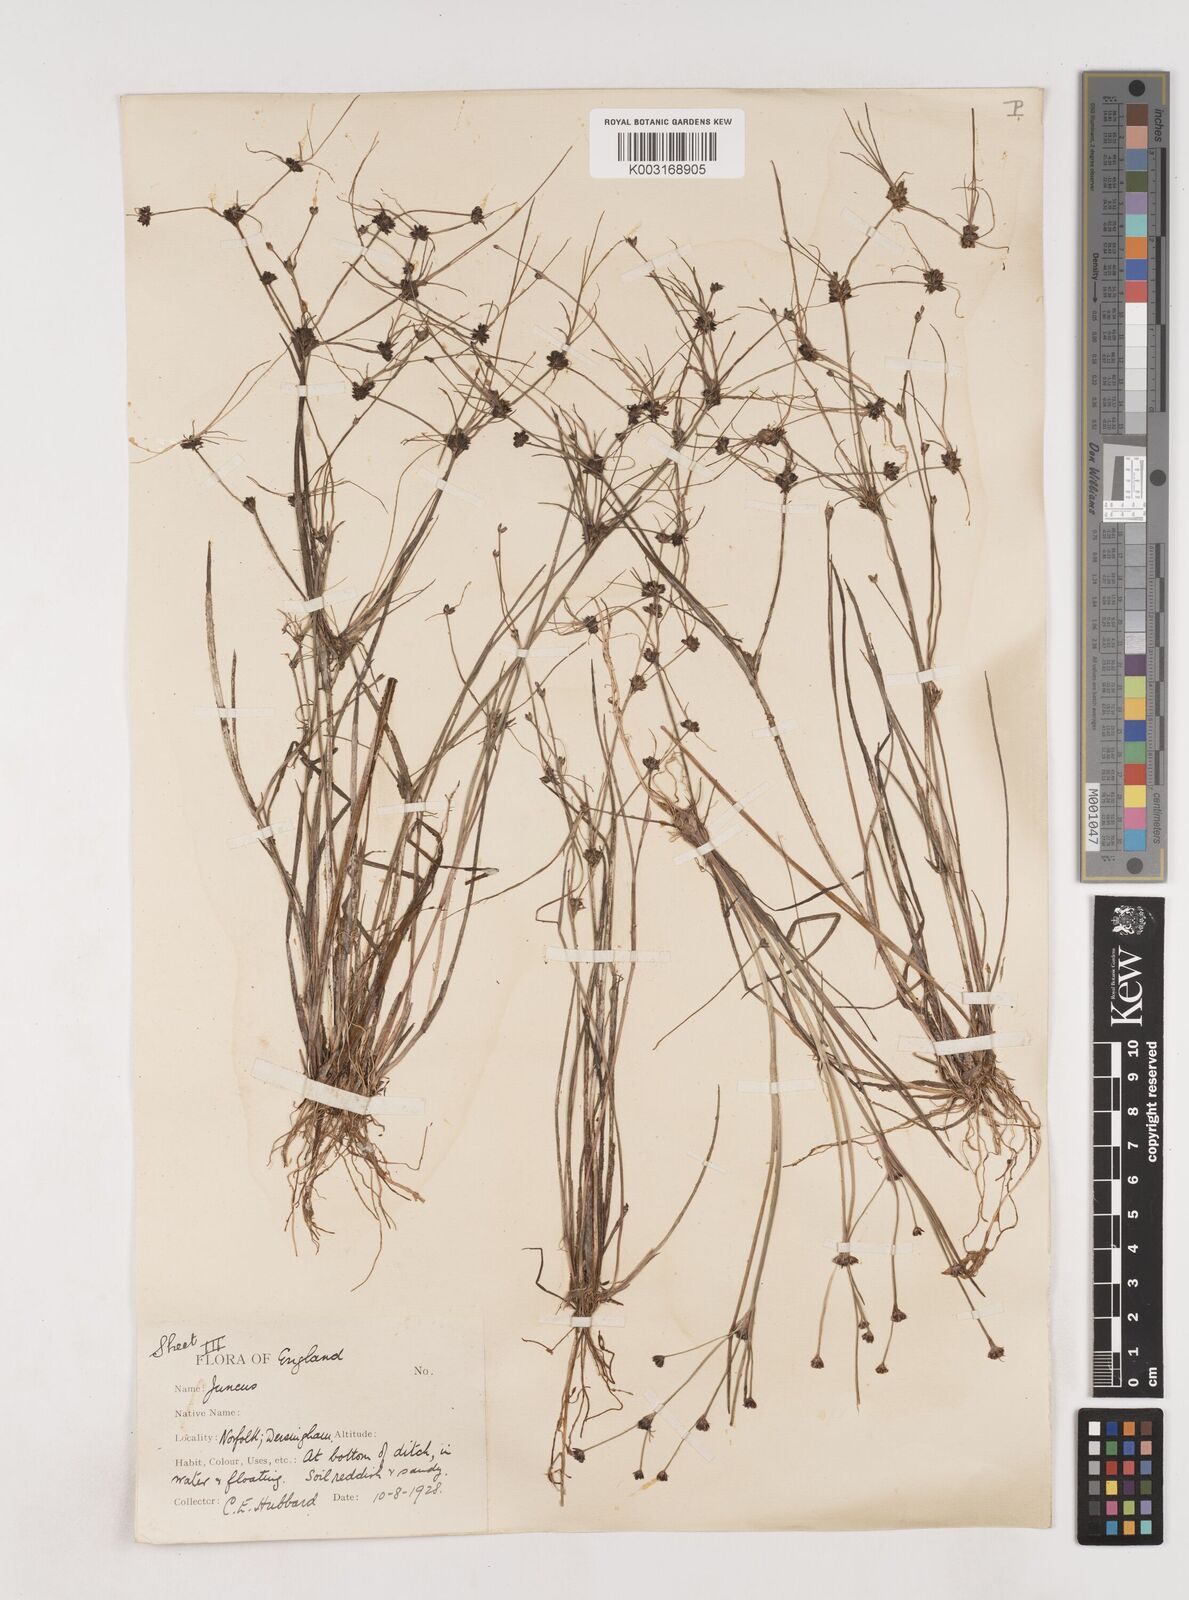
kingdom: Plantae
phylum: Tracheophyta
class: Liliopsida
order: Poales
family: Juncaceae
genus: Juncus
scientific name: Juncus bulbosus
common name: Bulbous rush
